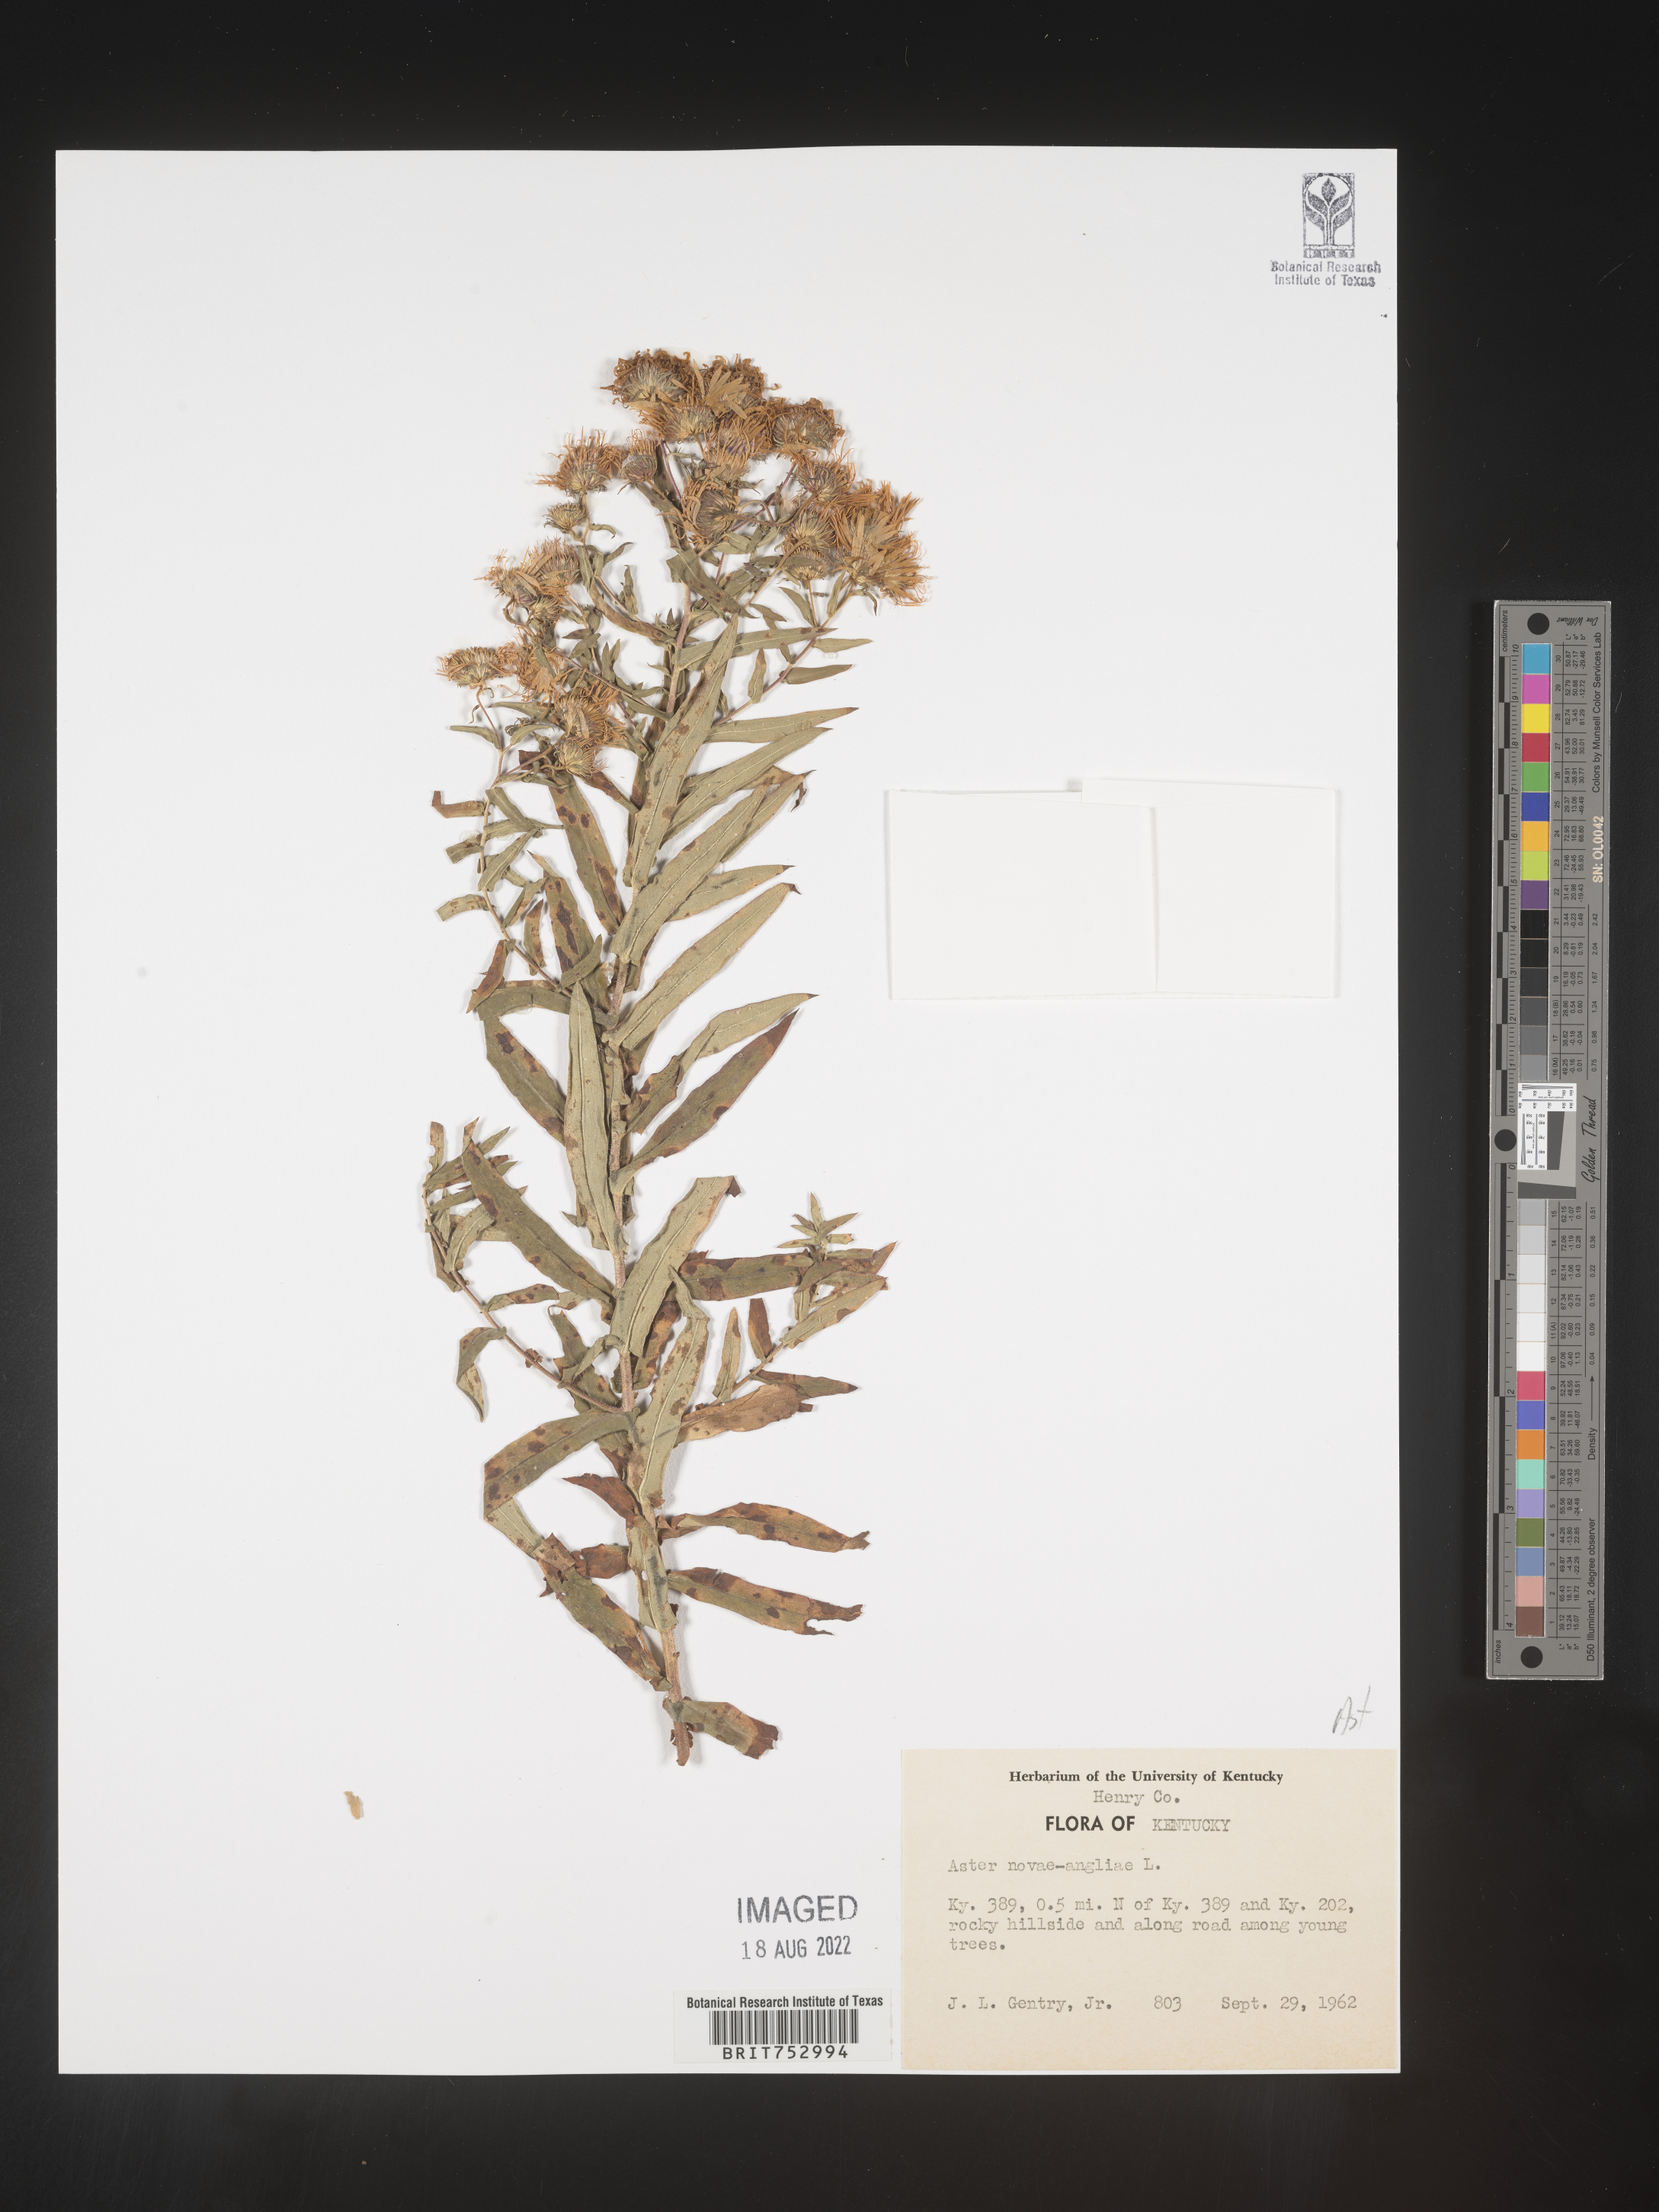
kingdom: Plantae
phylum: Tracheophyta
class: Magnoliopsida
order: Asterales
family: Asteraceae
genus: Symphyotrichum
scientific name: Symphyotrichum novae-angliae
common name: Michaelmas daisy
